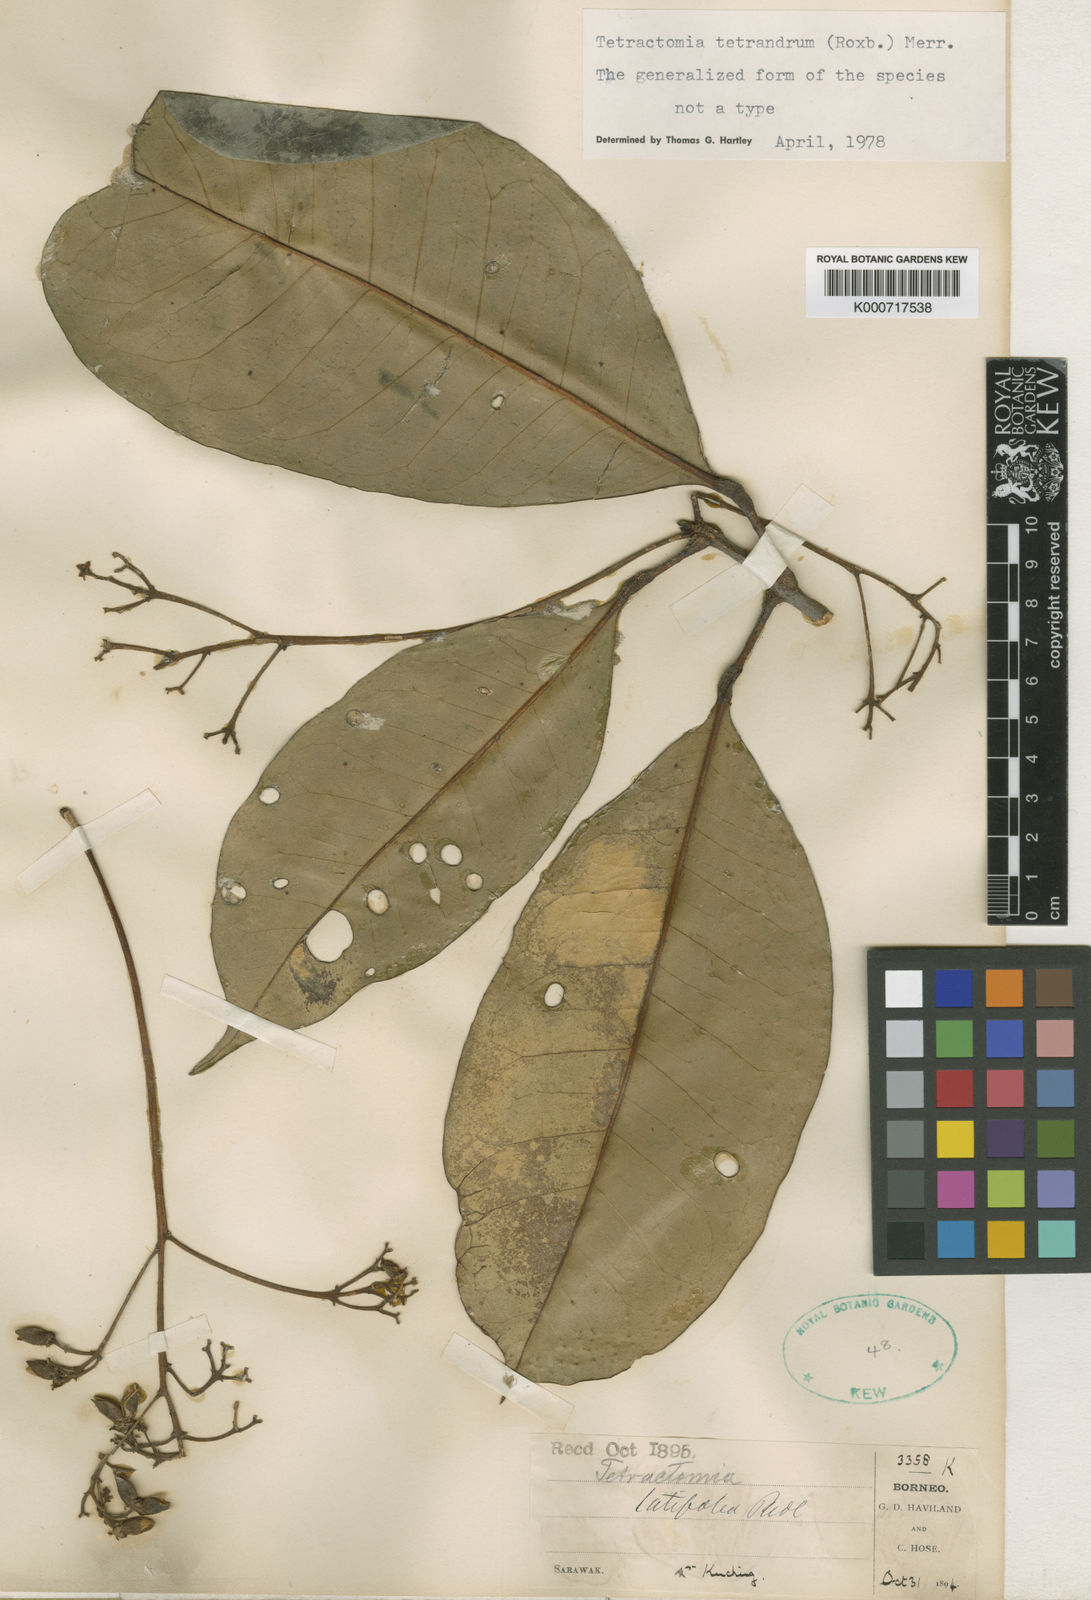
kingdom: Plantae
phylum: Tracheophyta
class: Magnoliopsida
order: Sapindales
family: Rutaceae
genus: Tetractomia
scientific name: Tetractomia tetrandra
